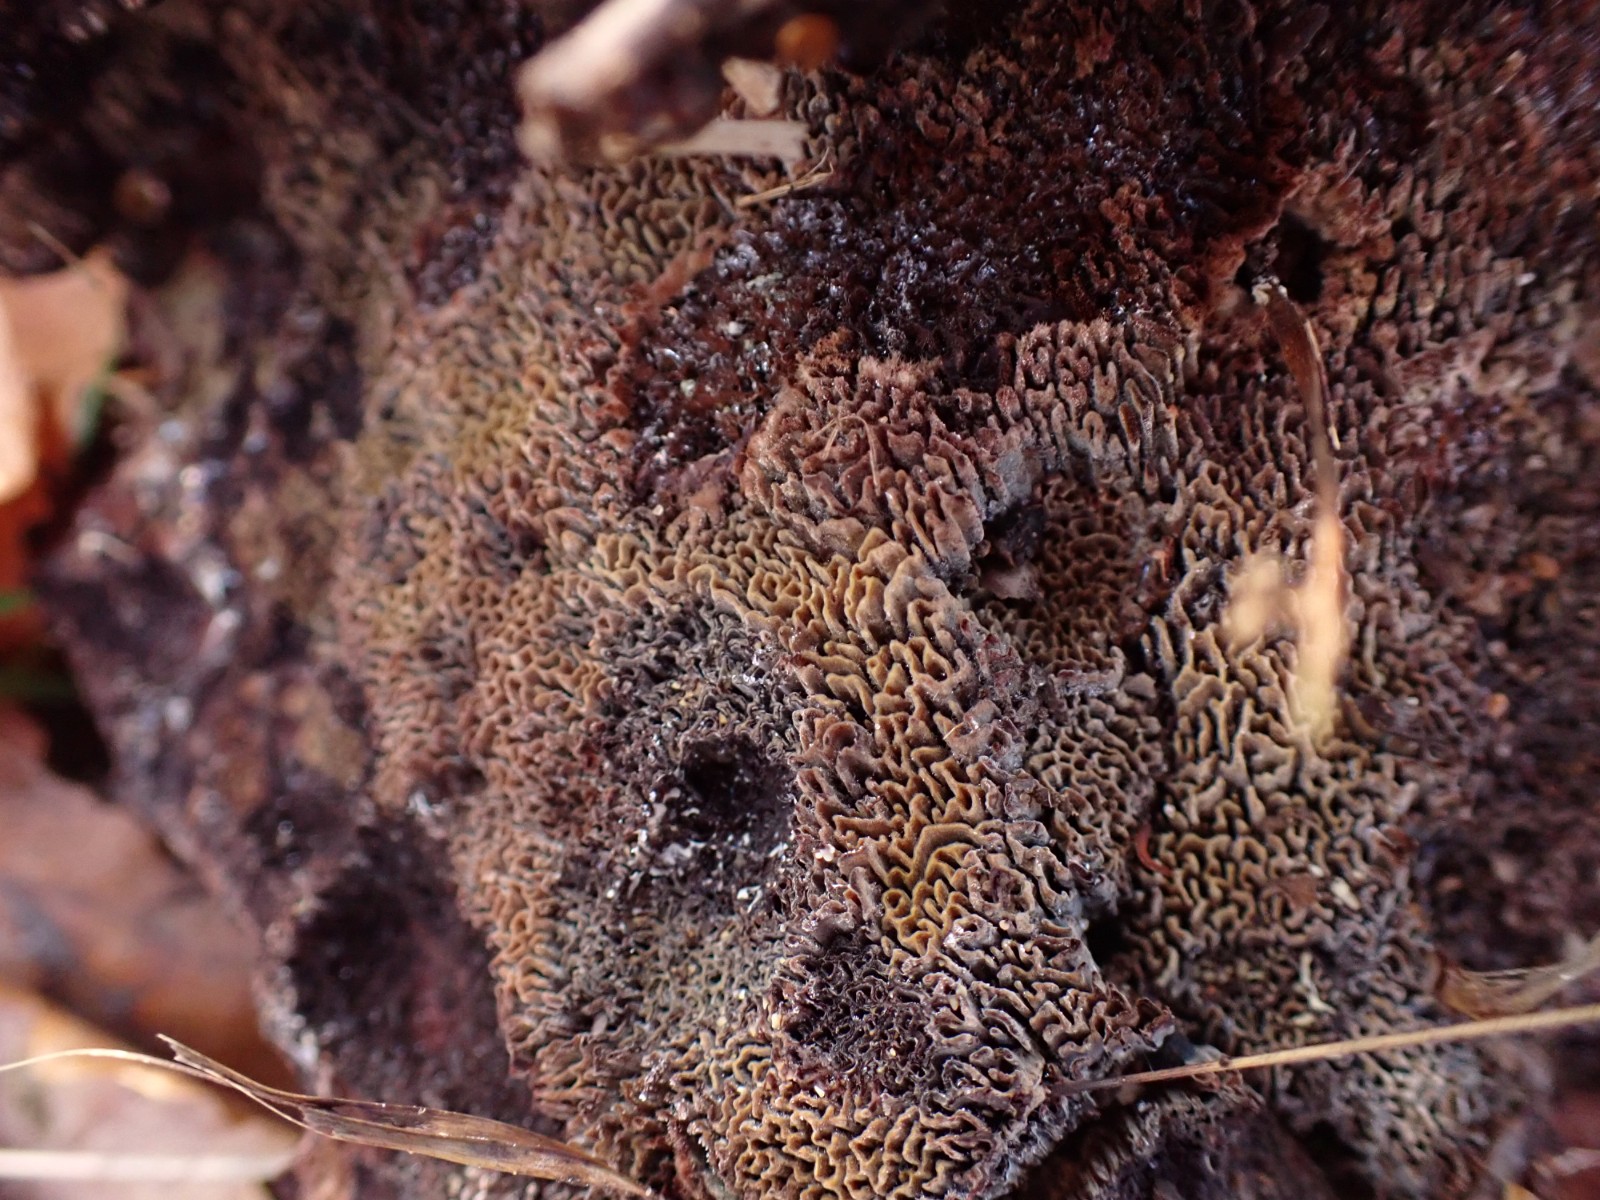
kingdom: Fungi
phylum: Basidiomycota
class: Agaricomycetes
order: Polyporales
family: Laetiporaceae
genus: Phaeolus
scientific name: Phaeolus schweinitzii
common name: brunporesvamp
